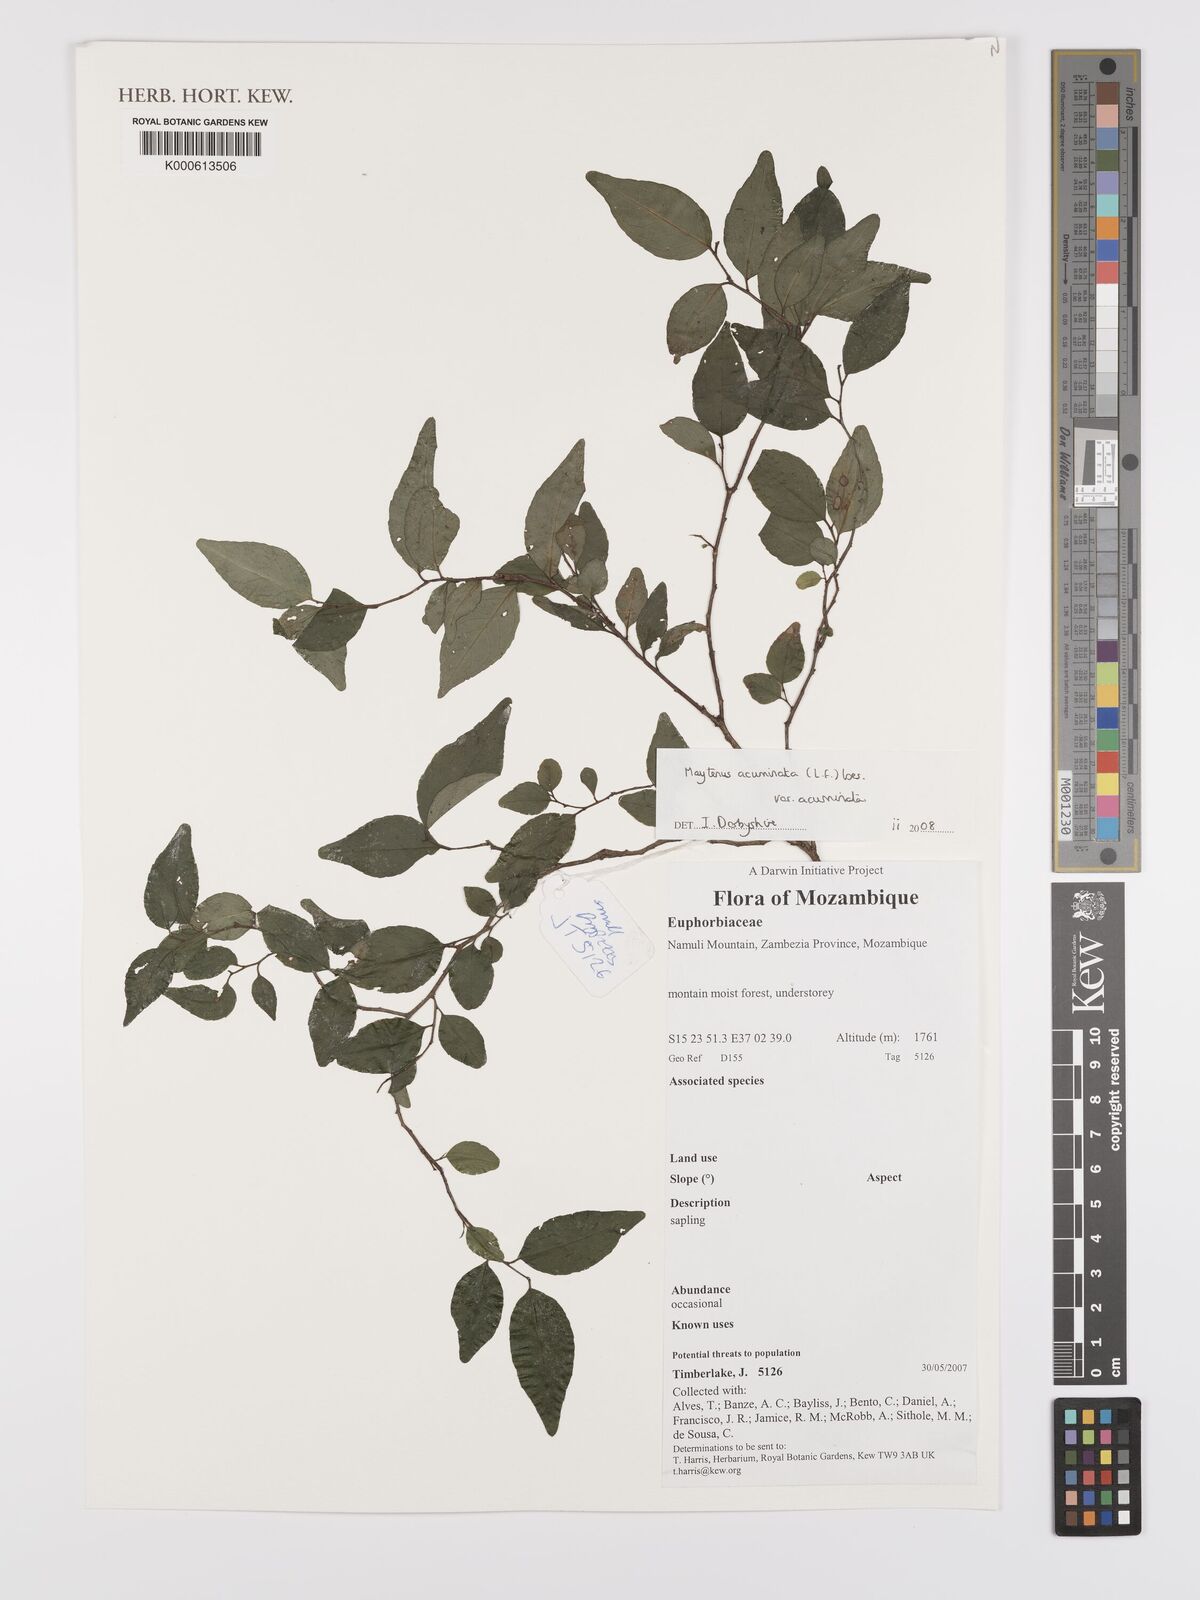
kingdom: Plantae
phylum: Tracheophyta
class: Magnoliopsida
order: Celastrales
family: Celastraceae
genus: Gymnosporia
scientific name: Gymnosporia acuminata
